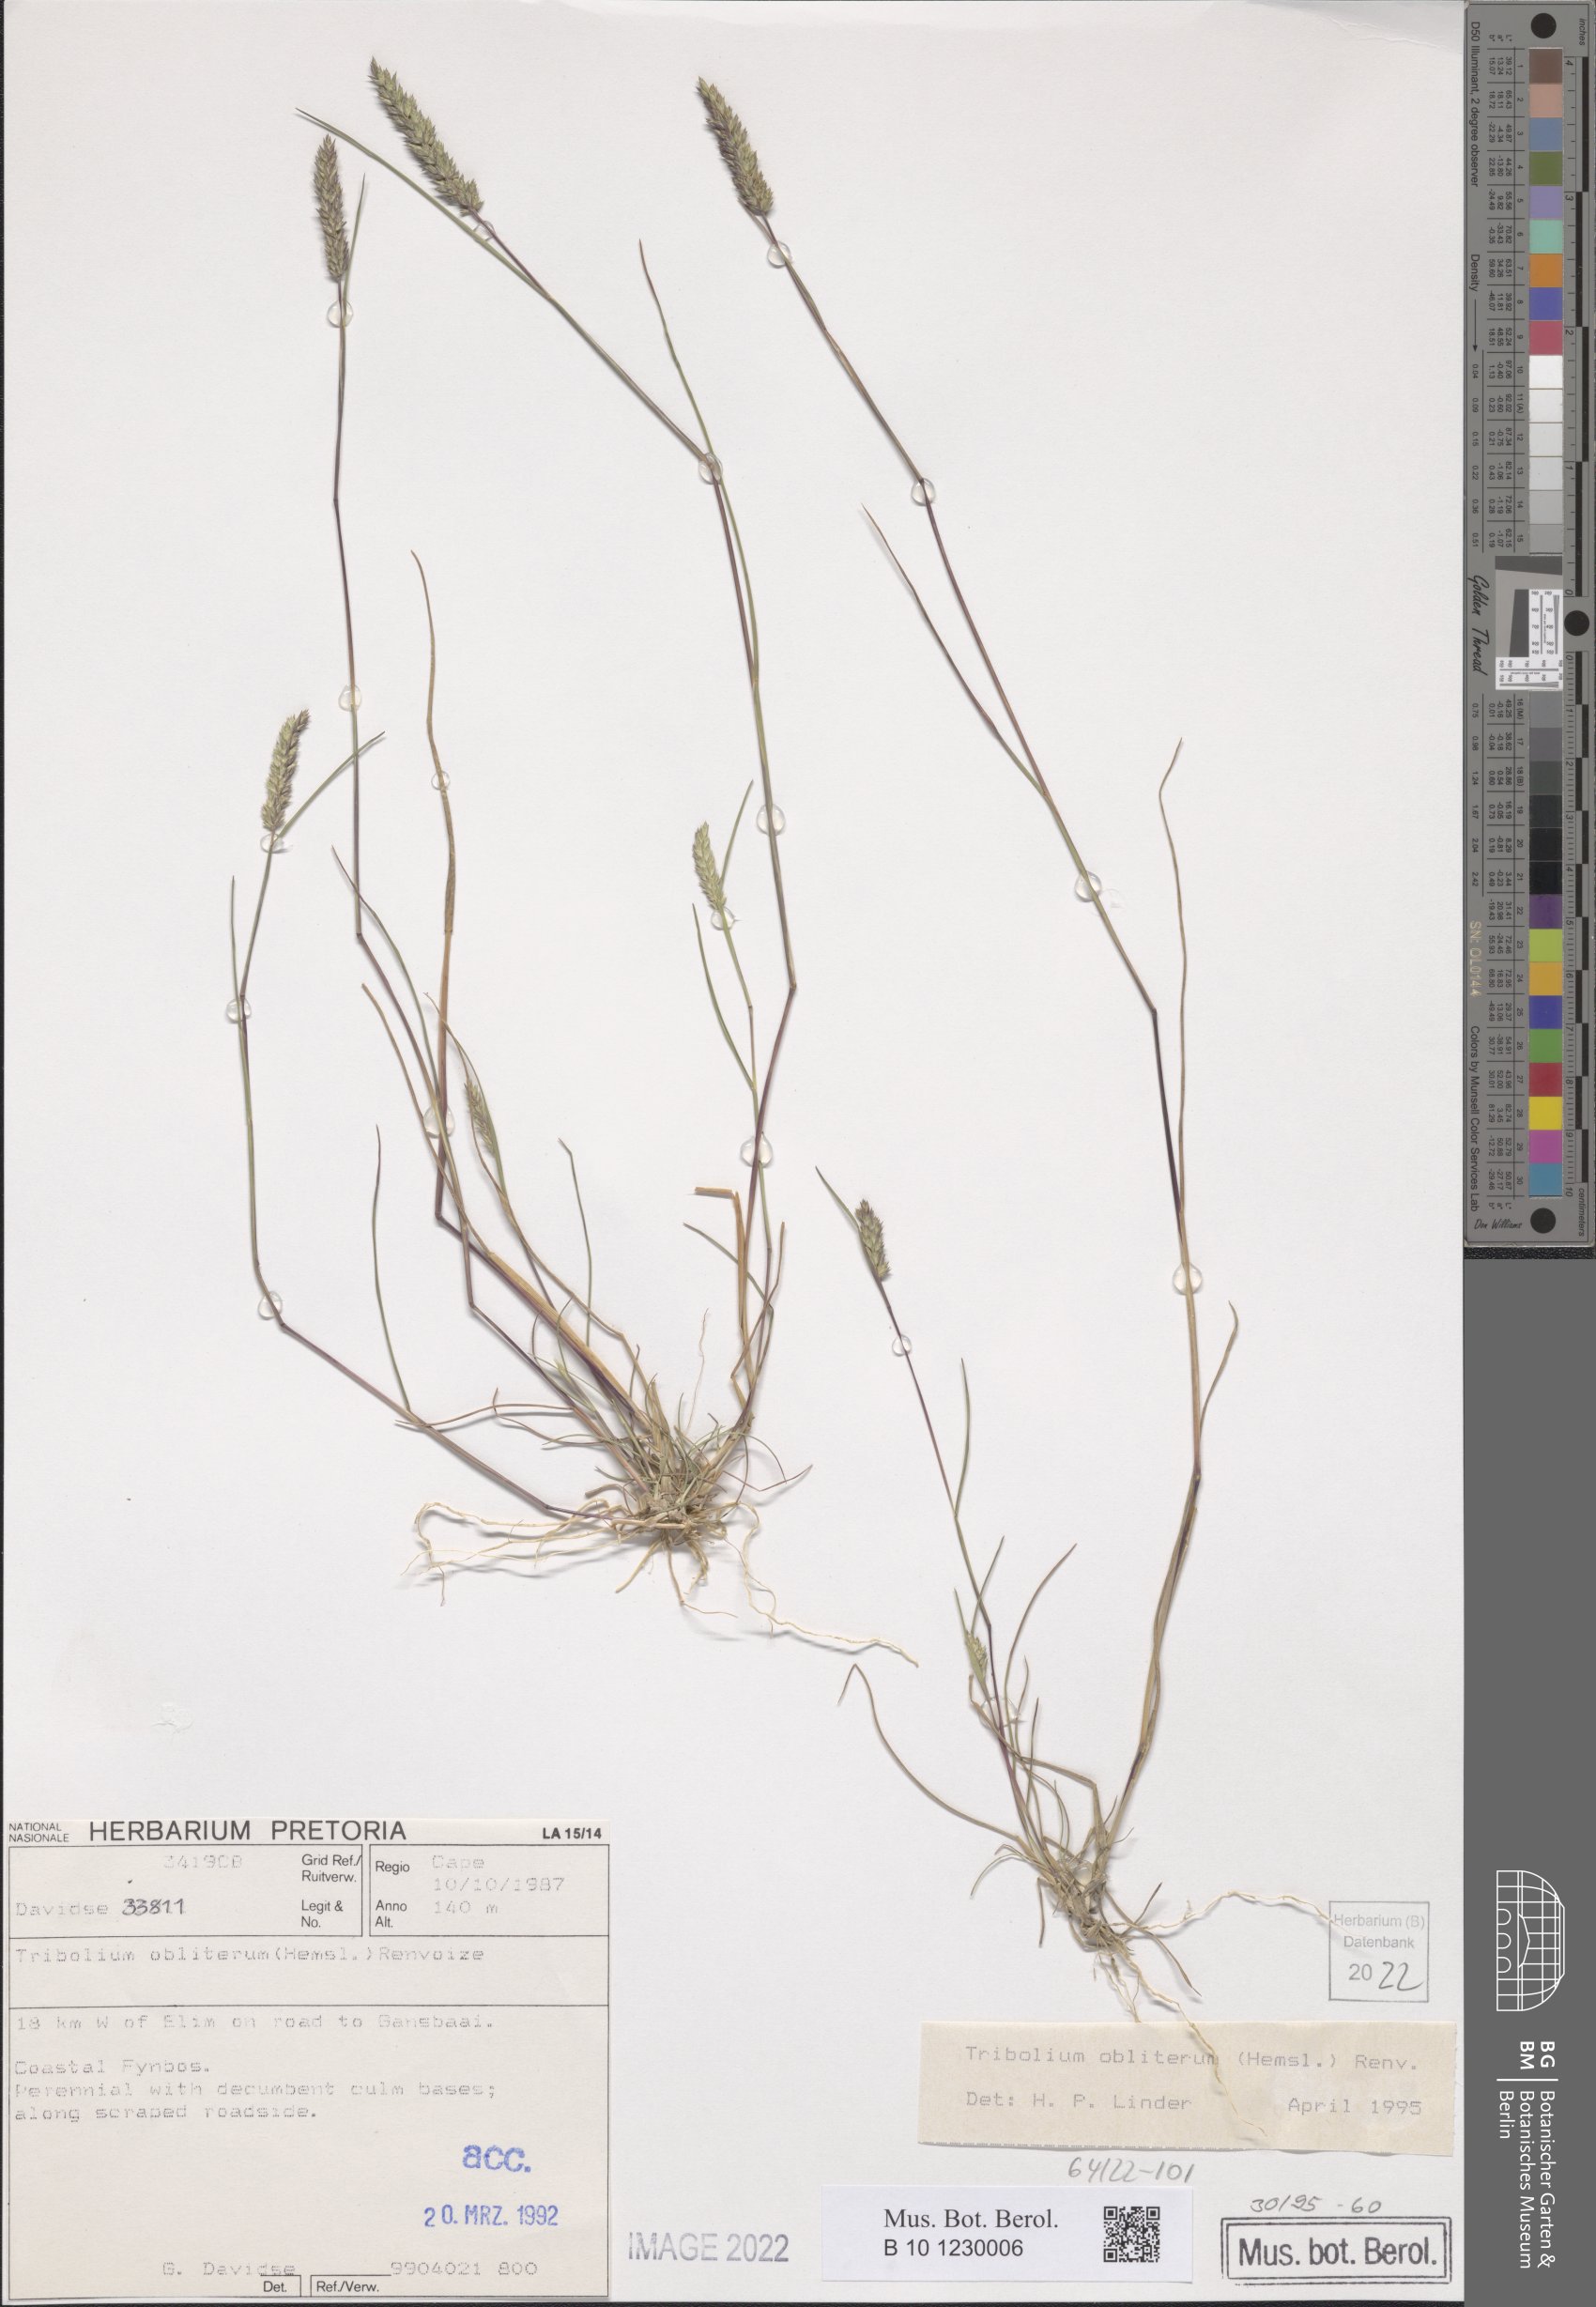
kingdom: Plantae
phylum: Tracheophyta
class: Liliopsida
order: Poales
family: Poaceae
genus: Tribolium
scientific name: Tribolium obliterum
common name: Capetown grass
